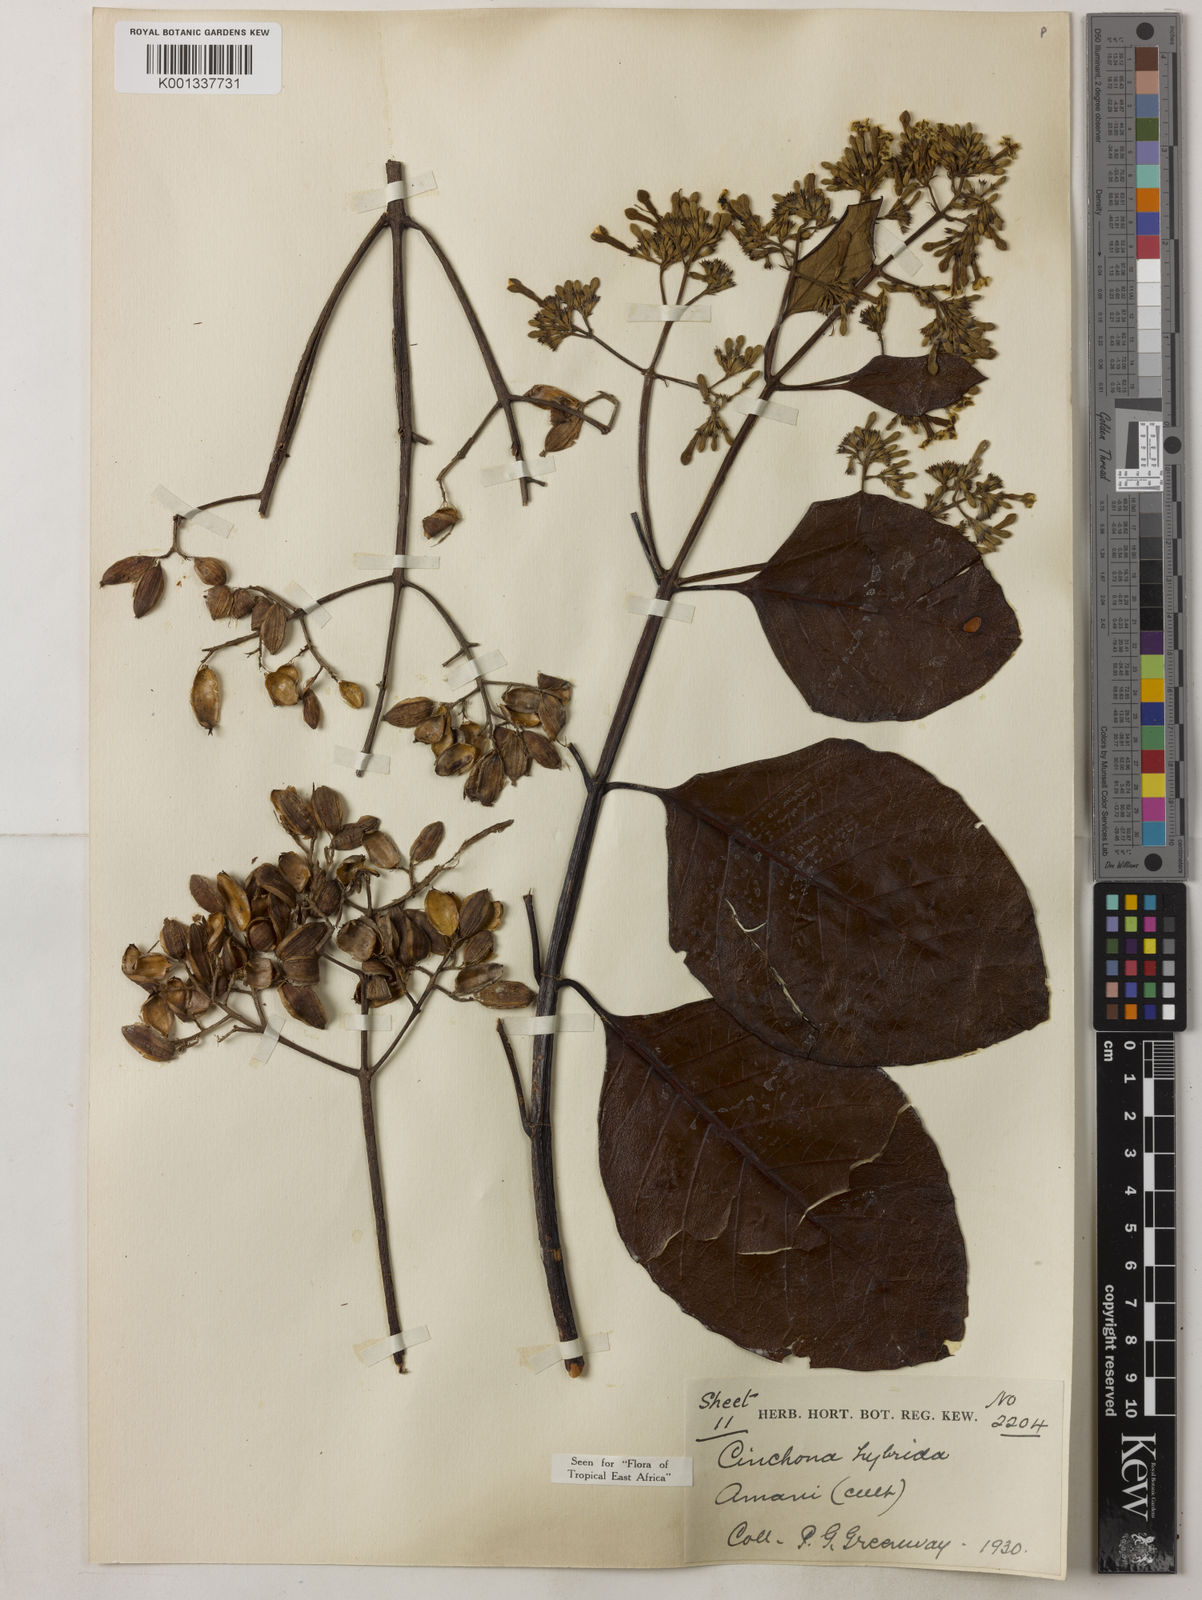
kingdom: Plantae
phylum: Tracheophyta
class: Magnoliopsida
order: Gentianales
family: Rubiaceae
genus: Cinchona
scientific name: Cinchona
